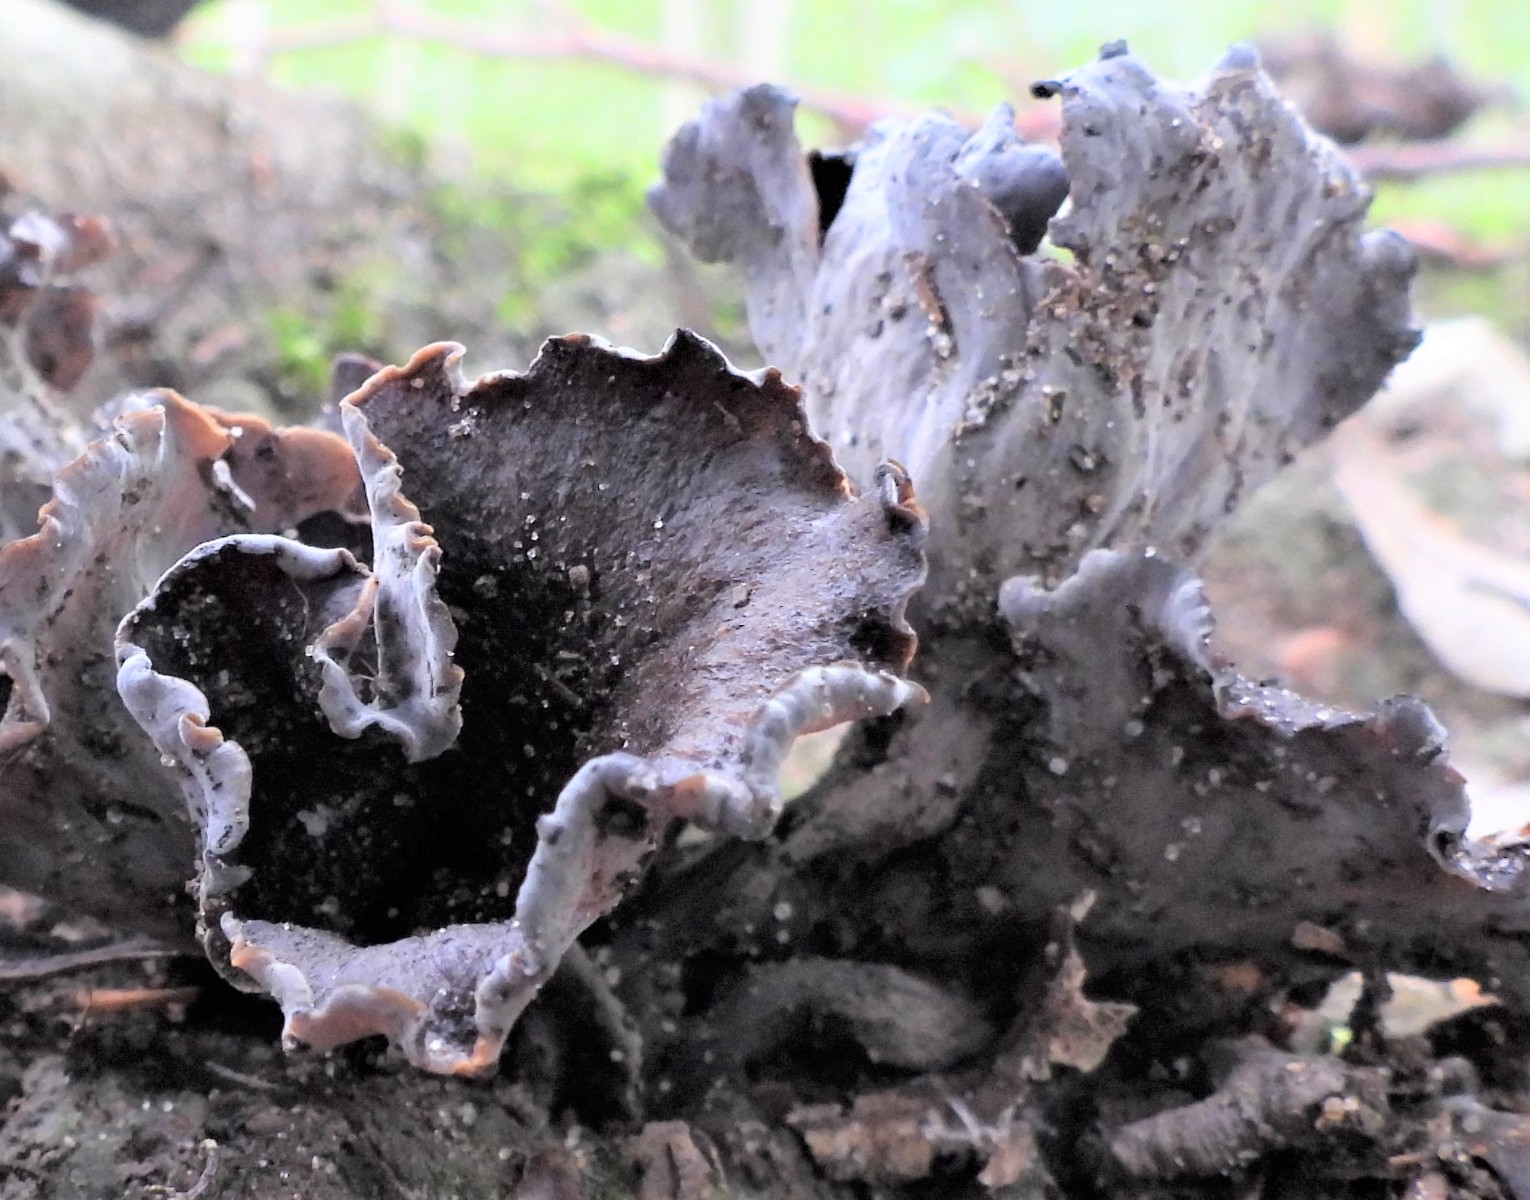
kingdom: Fungi
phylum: Basidiomycota
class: Agaricomycetes
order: Cantharellales
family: Hydnaceae
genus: Craterellus
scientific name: Craterellus cornucopioides
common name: trompetsvamp
